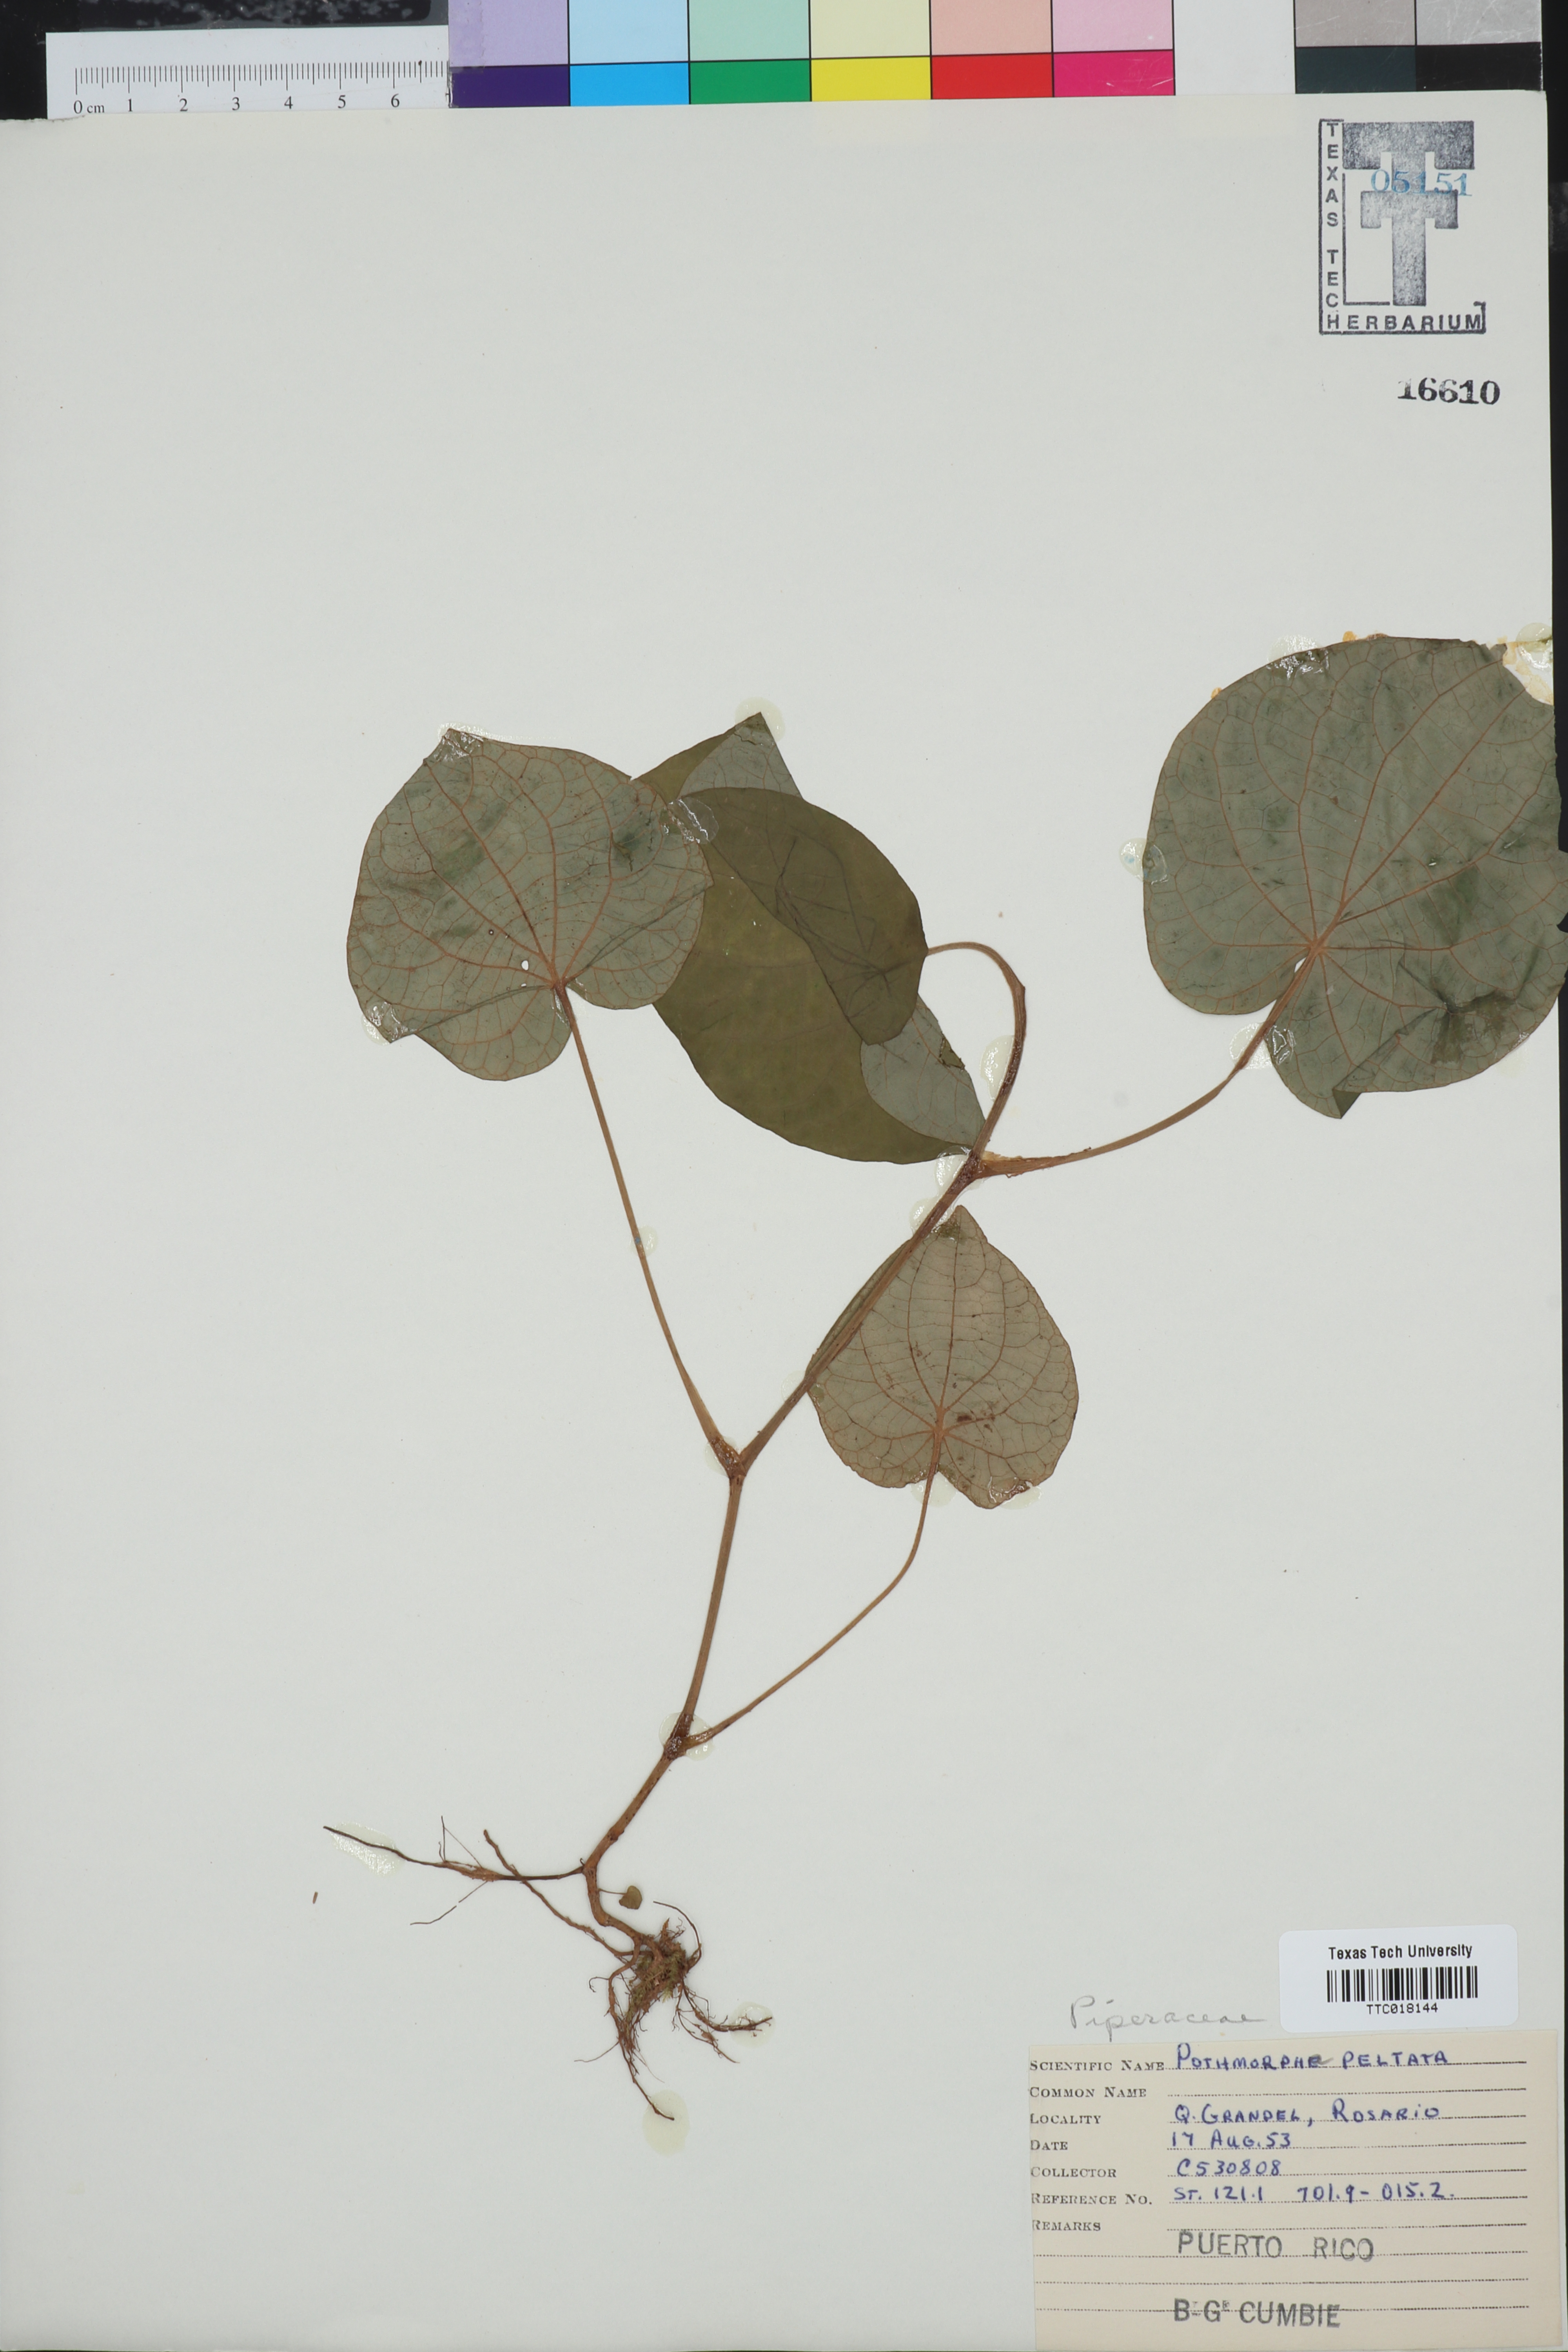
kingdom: Plantae
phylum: Tracheophyta
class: Magnoliopsida
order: Piperales
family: Piperaceae
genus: Piper
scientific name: Piper peltatum
